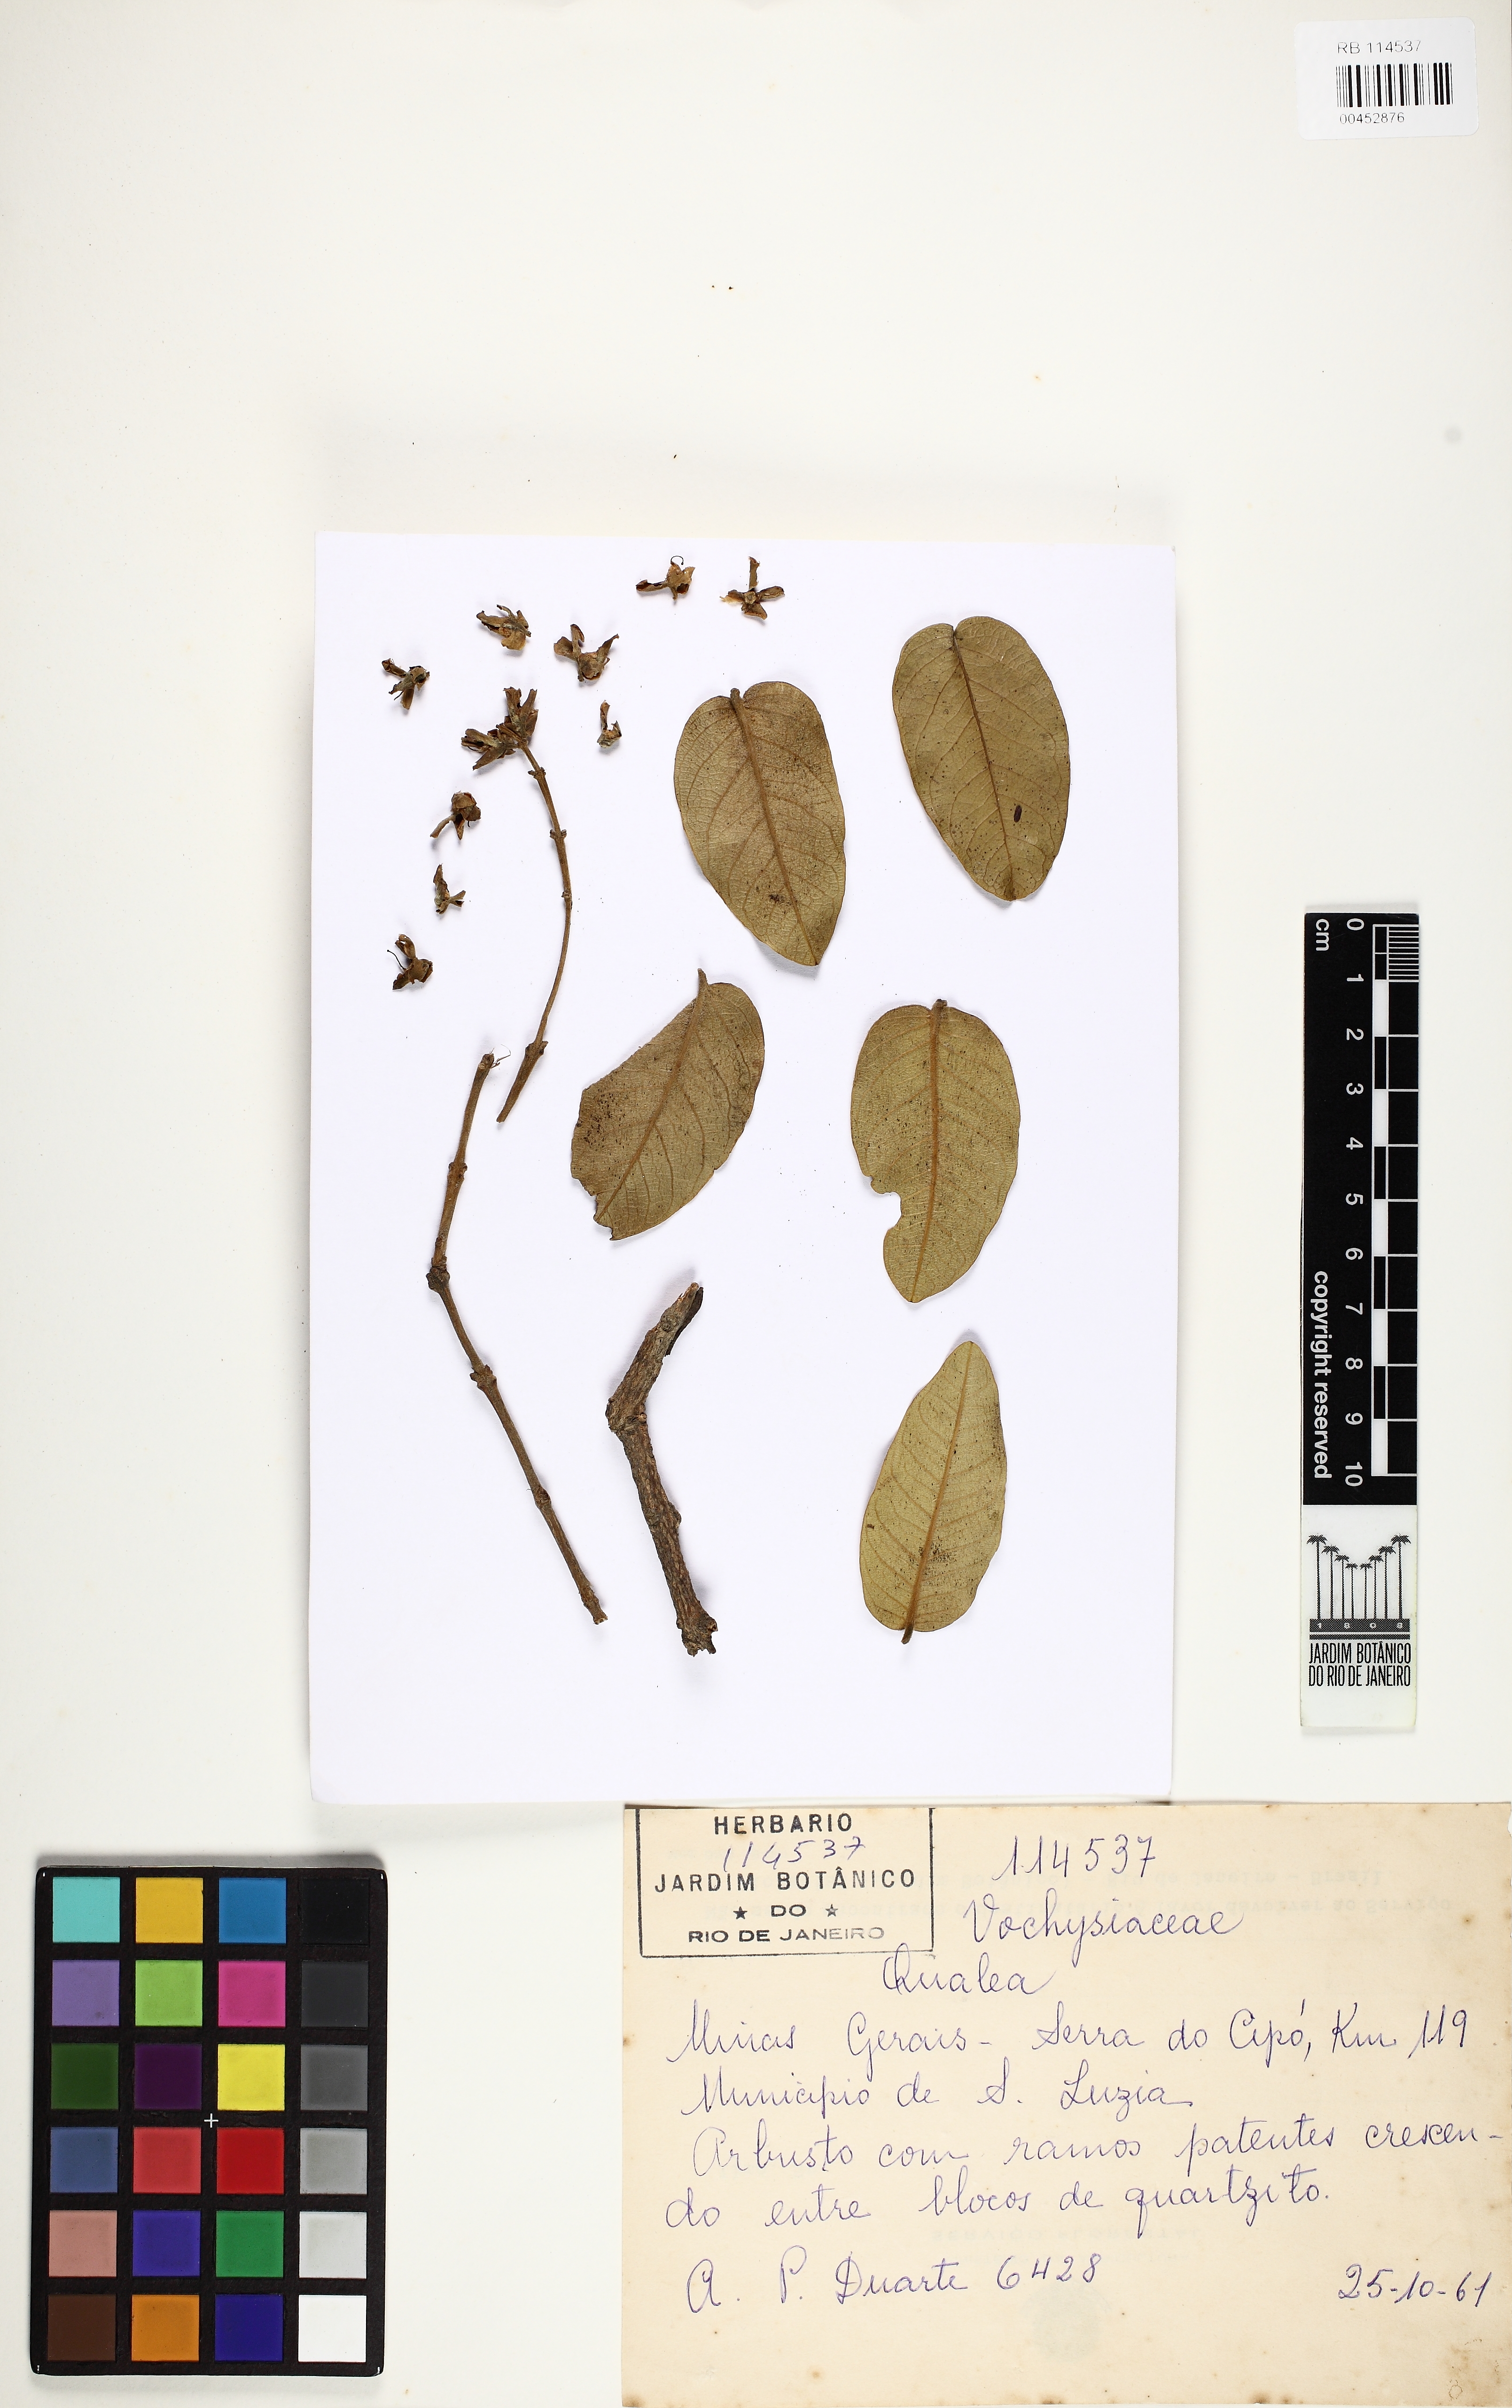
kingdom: Plantae
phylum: Tracheophyta
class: Magnoliopsida
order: Myrtales
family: Vochysiaceae
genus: Qualea
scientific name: Qualea cordata
